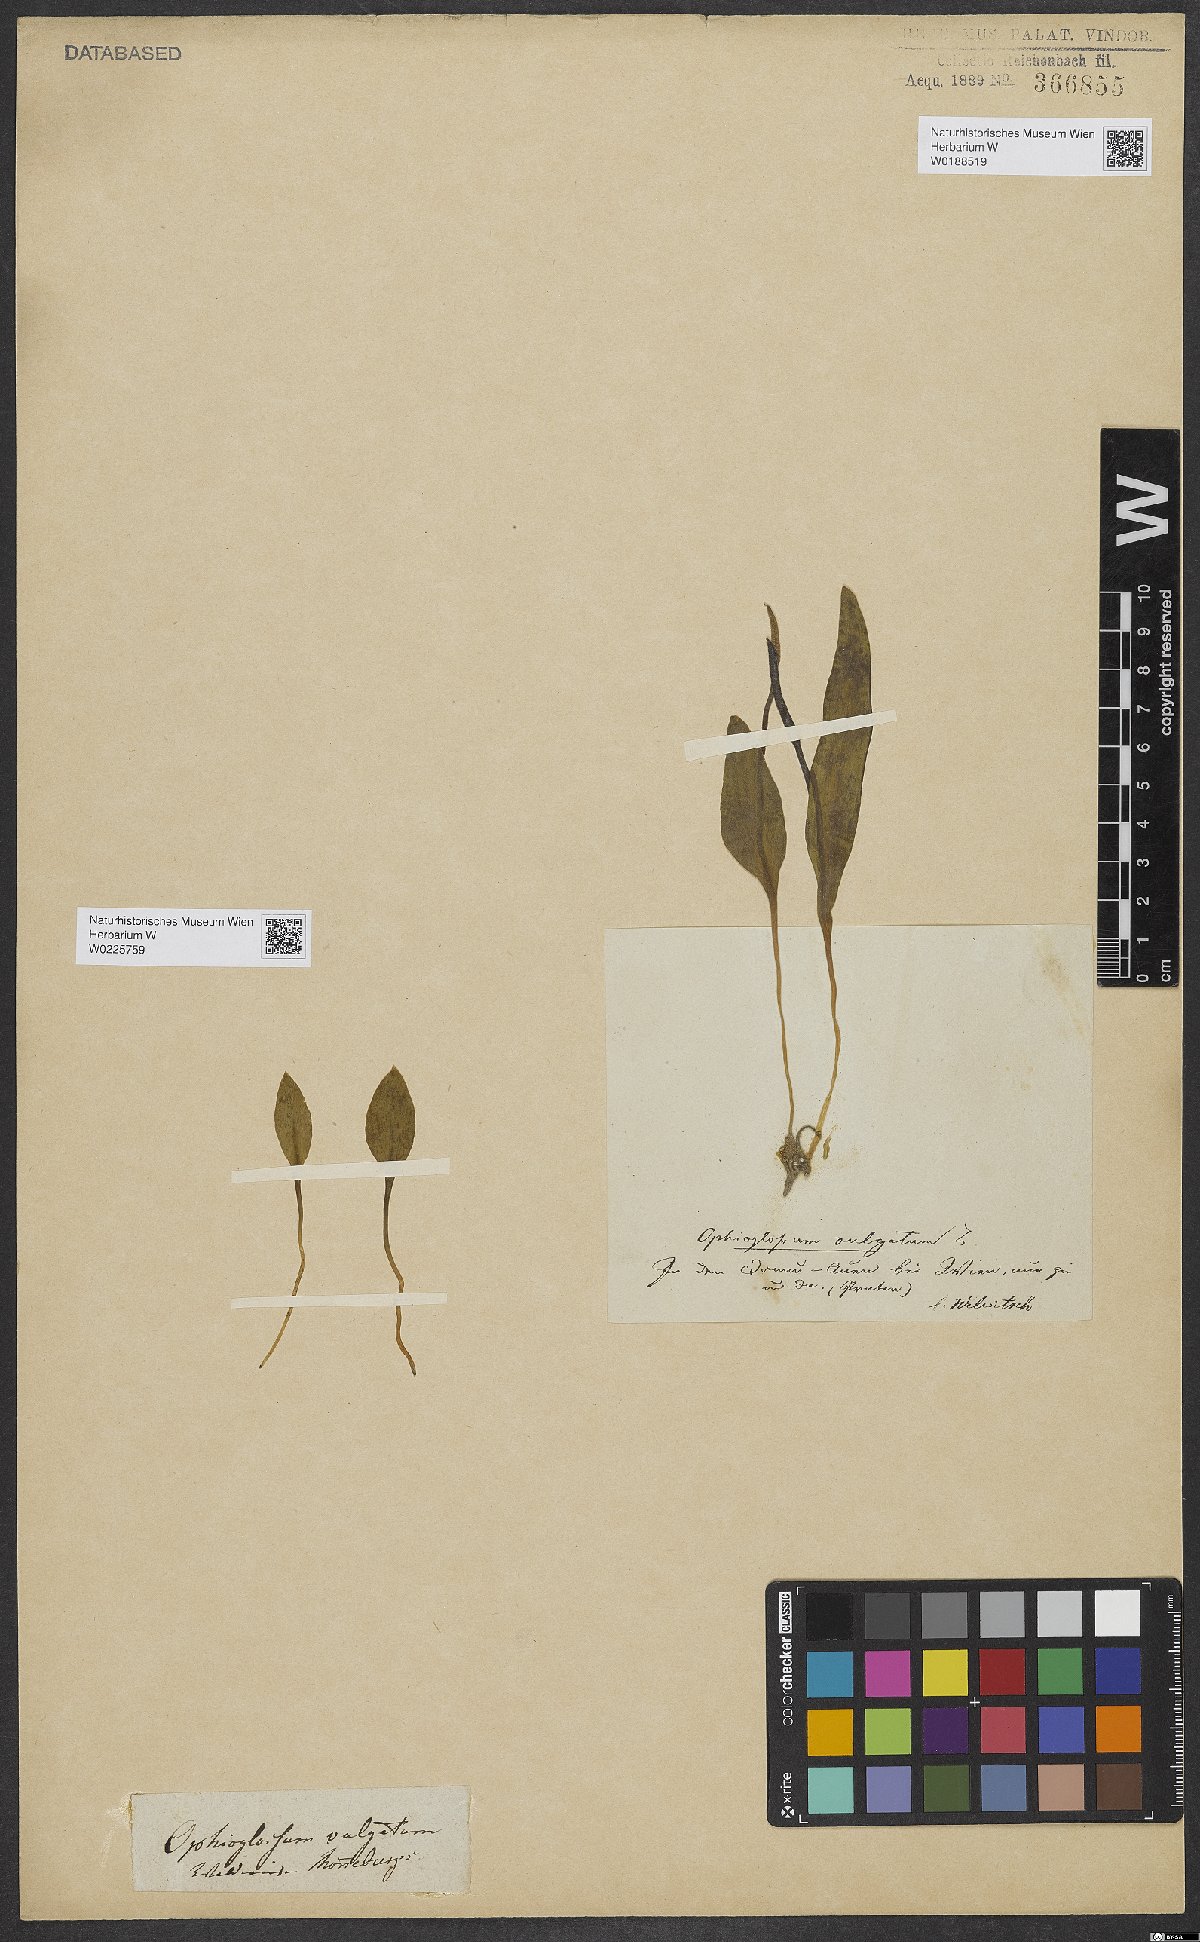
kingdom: Plantae
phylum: Tracheophyta
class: Polypodiopsida
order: Ophioglossales
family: Ophioglossaceae
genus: Ophioglossum
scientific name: Ophioglossum vulgatum
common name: Adder's-tongue
